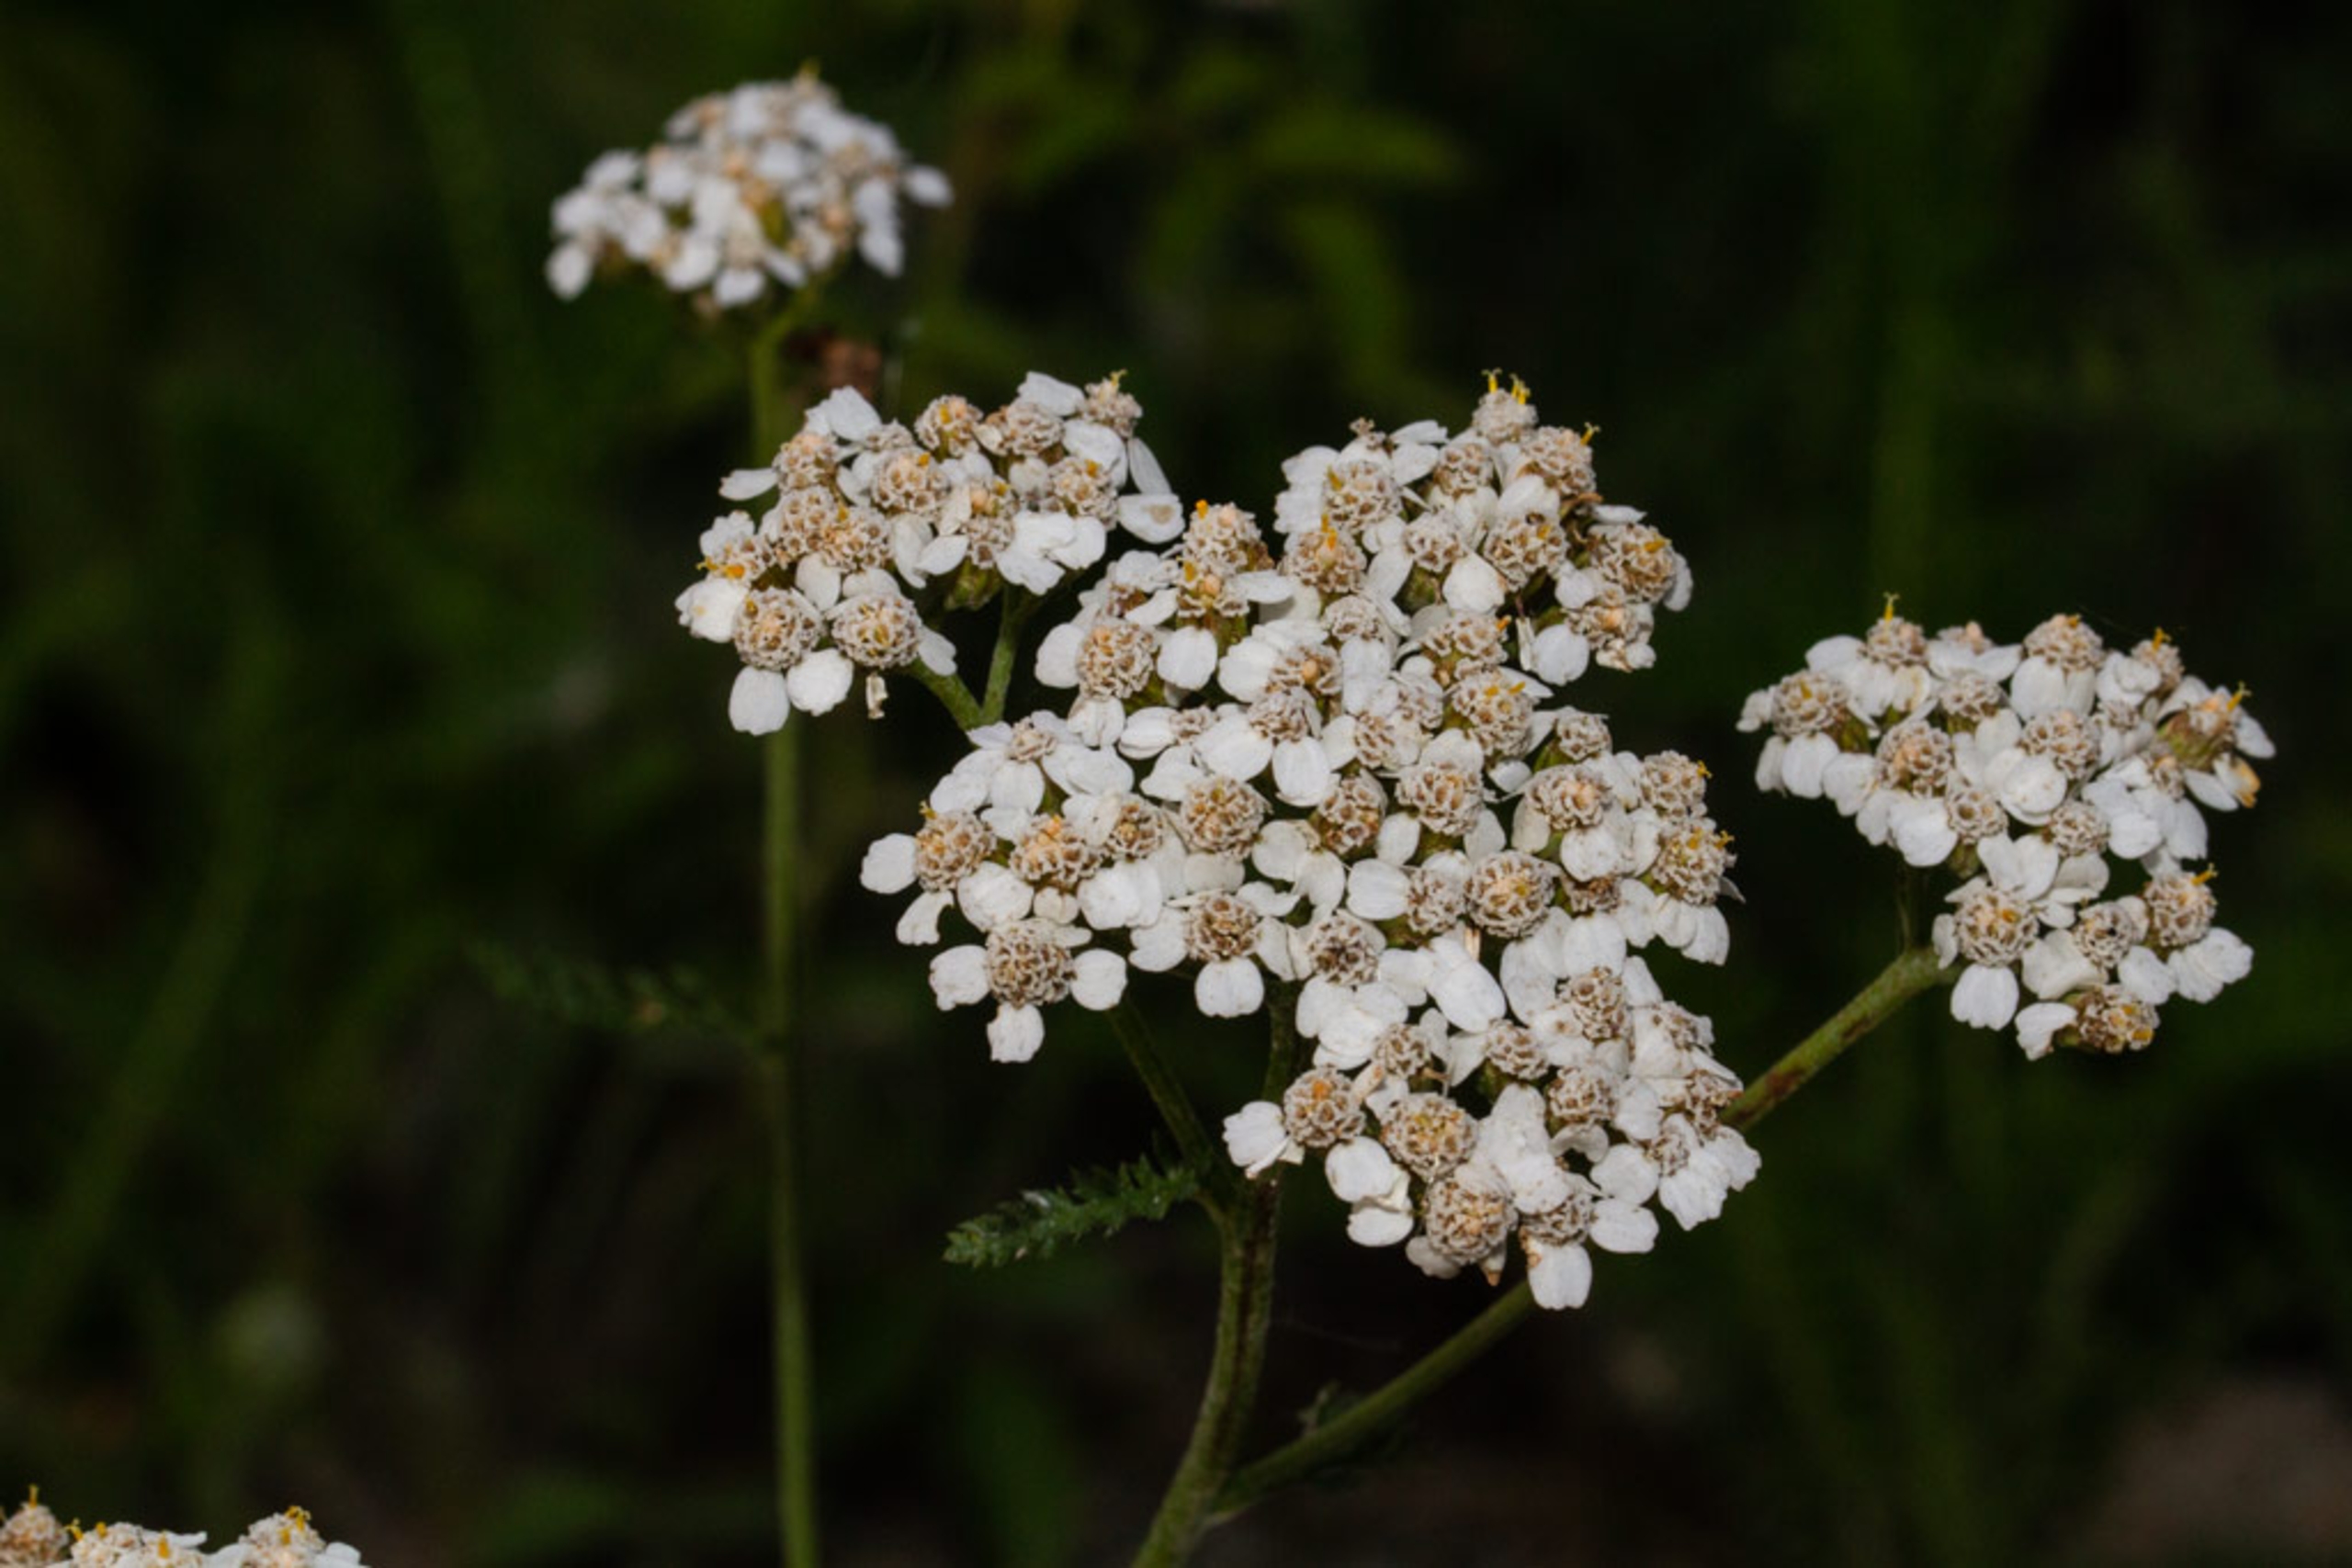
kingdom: Plantae
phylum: Tracheophyta
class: Magnoliopsida
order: Asterales
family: Asteraceae
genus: Achillea
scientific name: Achillea millefolium
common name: Almindelig røllike
